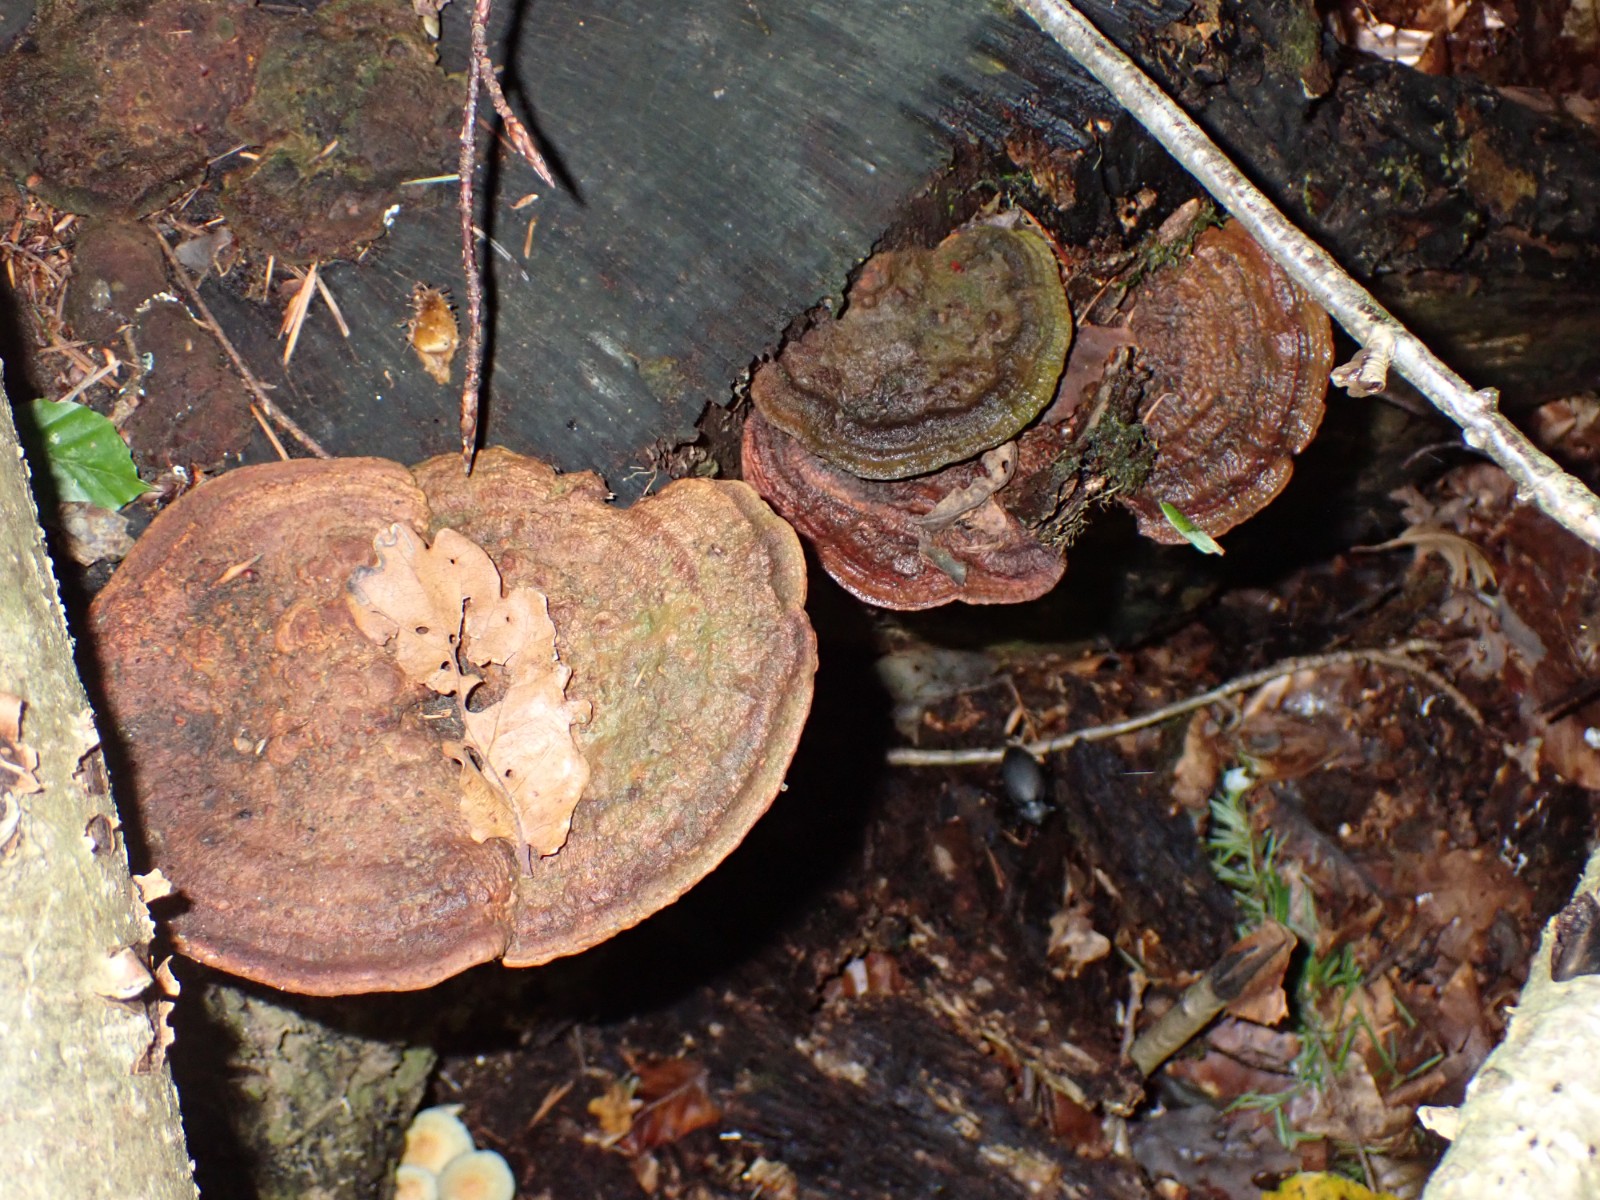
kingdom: Fungi
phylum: Basidiomycota
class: Agaricomycetes
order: Polyporales
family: Fomitopsidaceae
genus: Daedalea
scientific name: Daedalea quercina
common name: ege-labyrintsvamp
